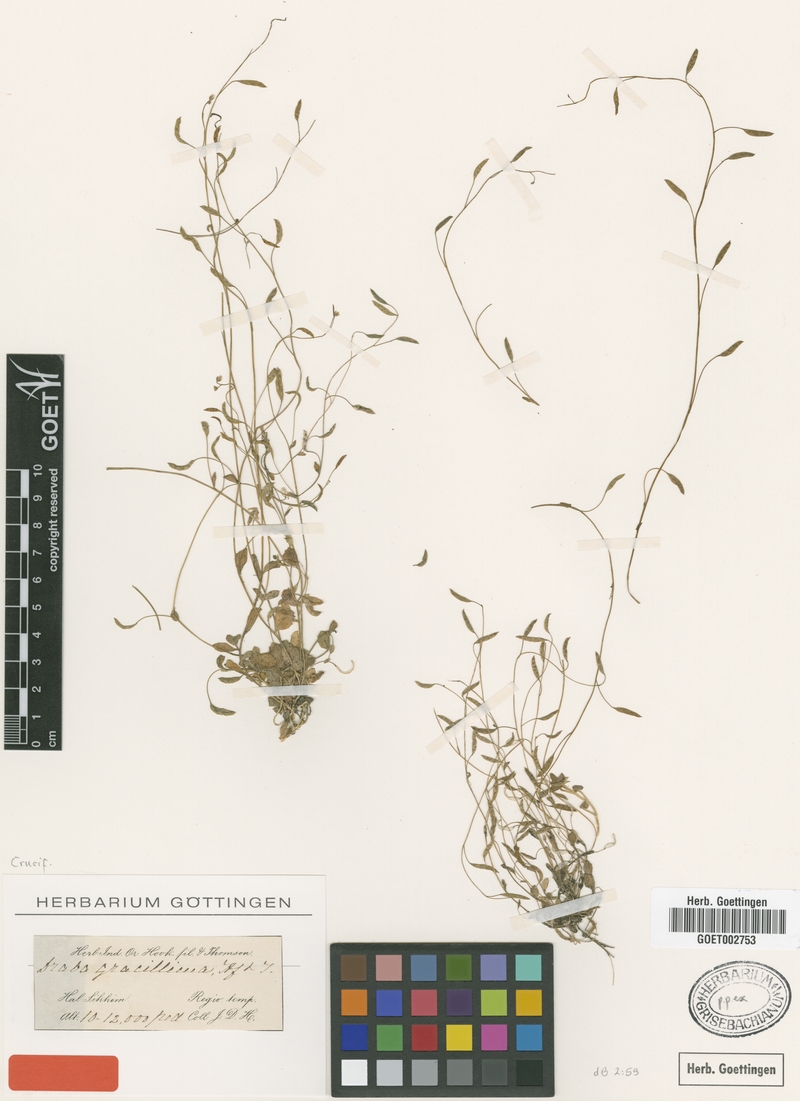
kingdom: Plantae
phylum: Tracheophyta
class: Magnoliopsida
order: Brassicales
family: Brassicaceae
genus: Draba
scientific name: Draba gracillima
